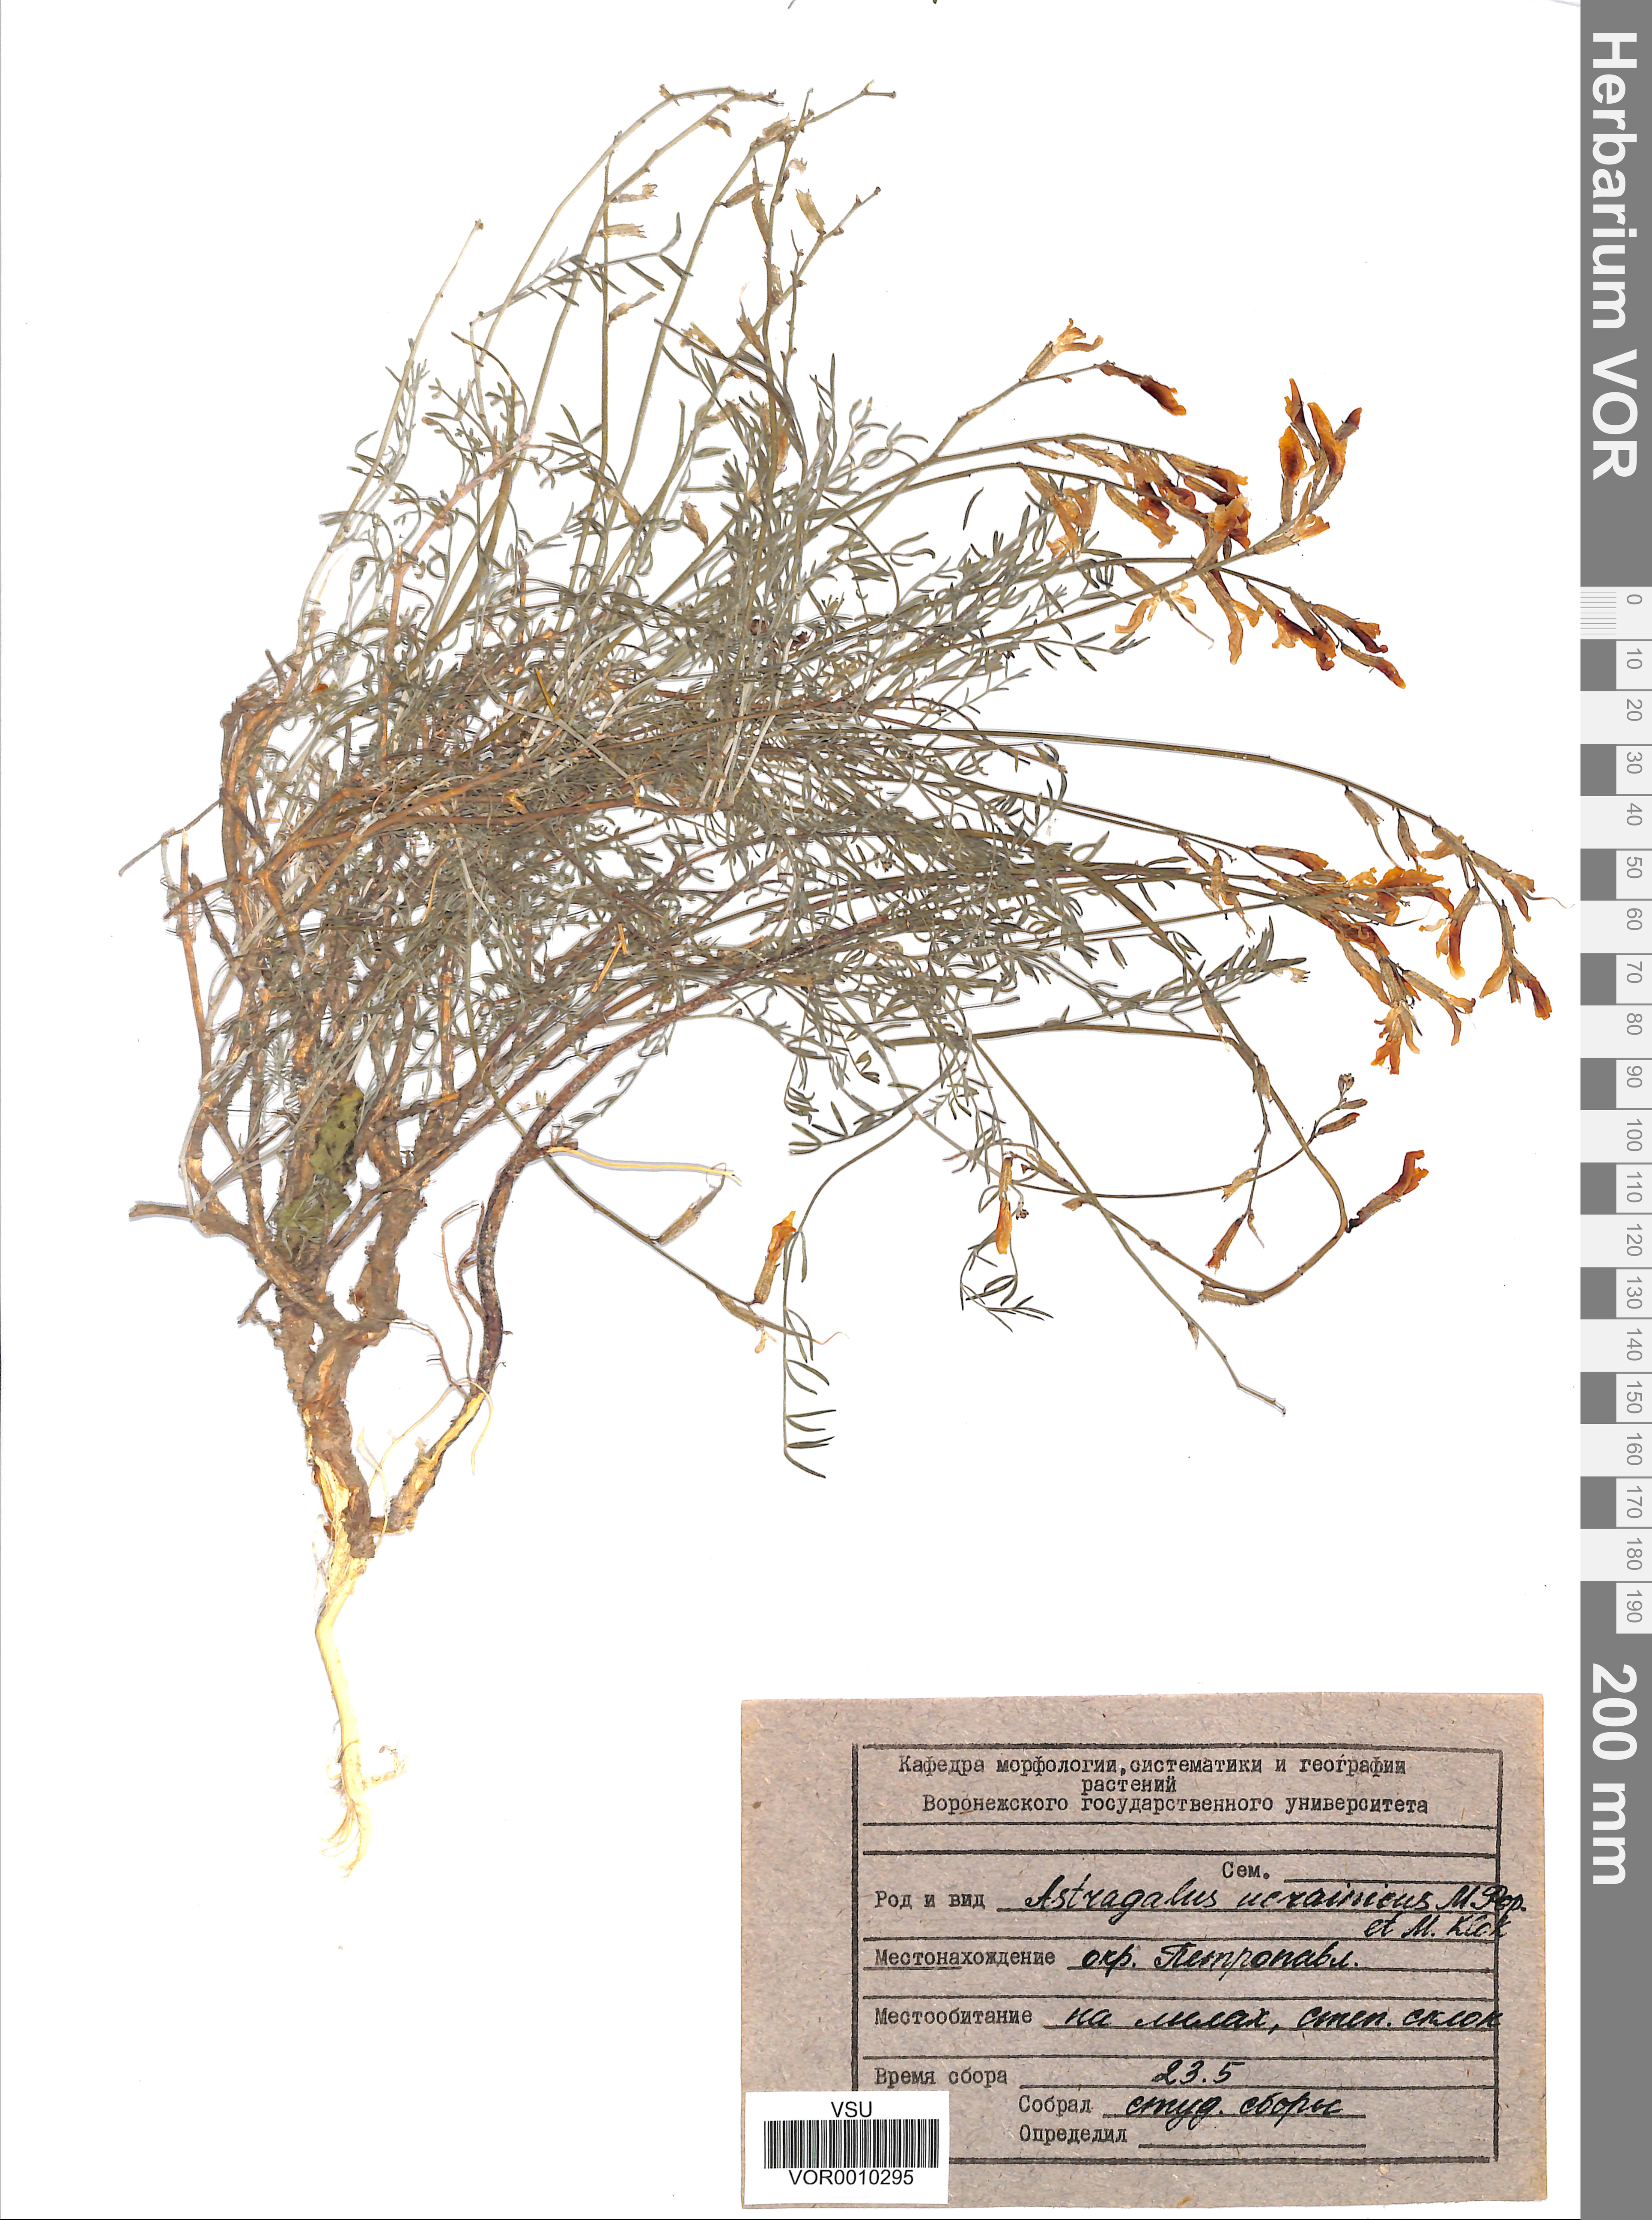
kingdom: Plantae
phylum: Tracheophyta
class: Magnoliopsida
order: Fabales
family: Fabaceae
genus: Astragalus
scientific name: Astragalus ucrainicus
